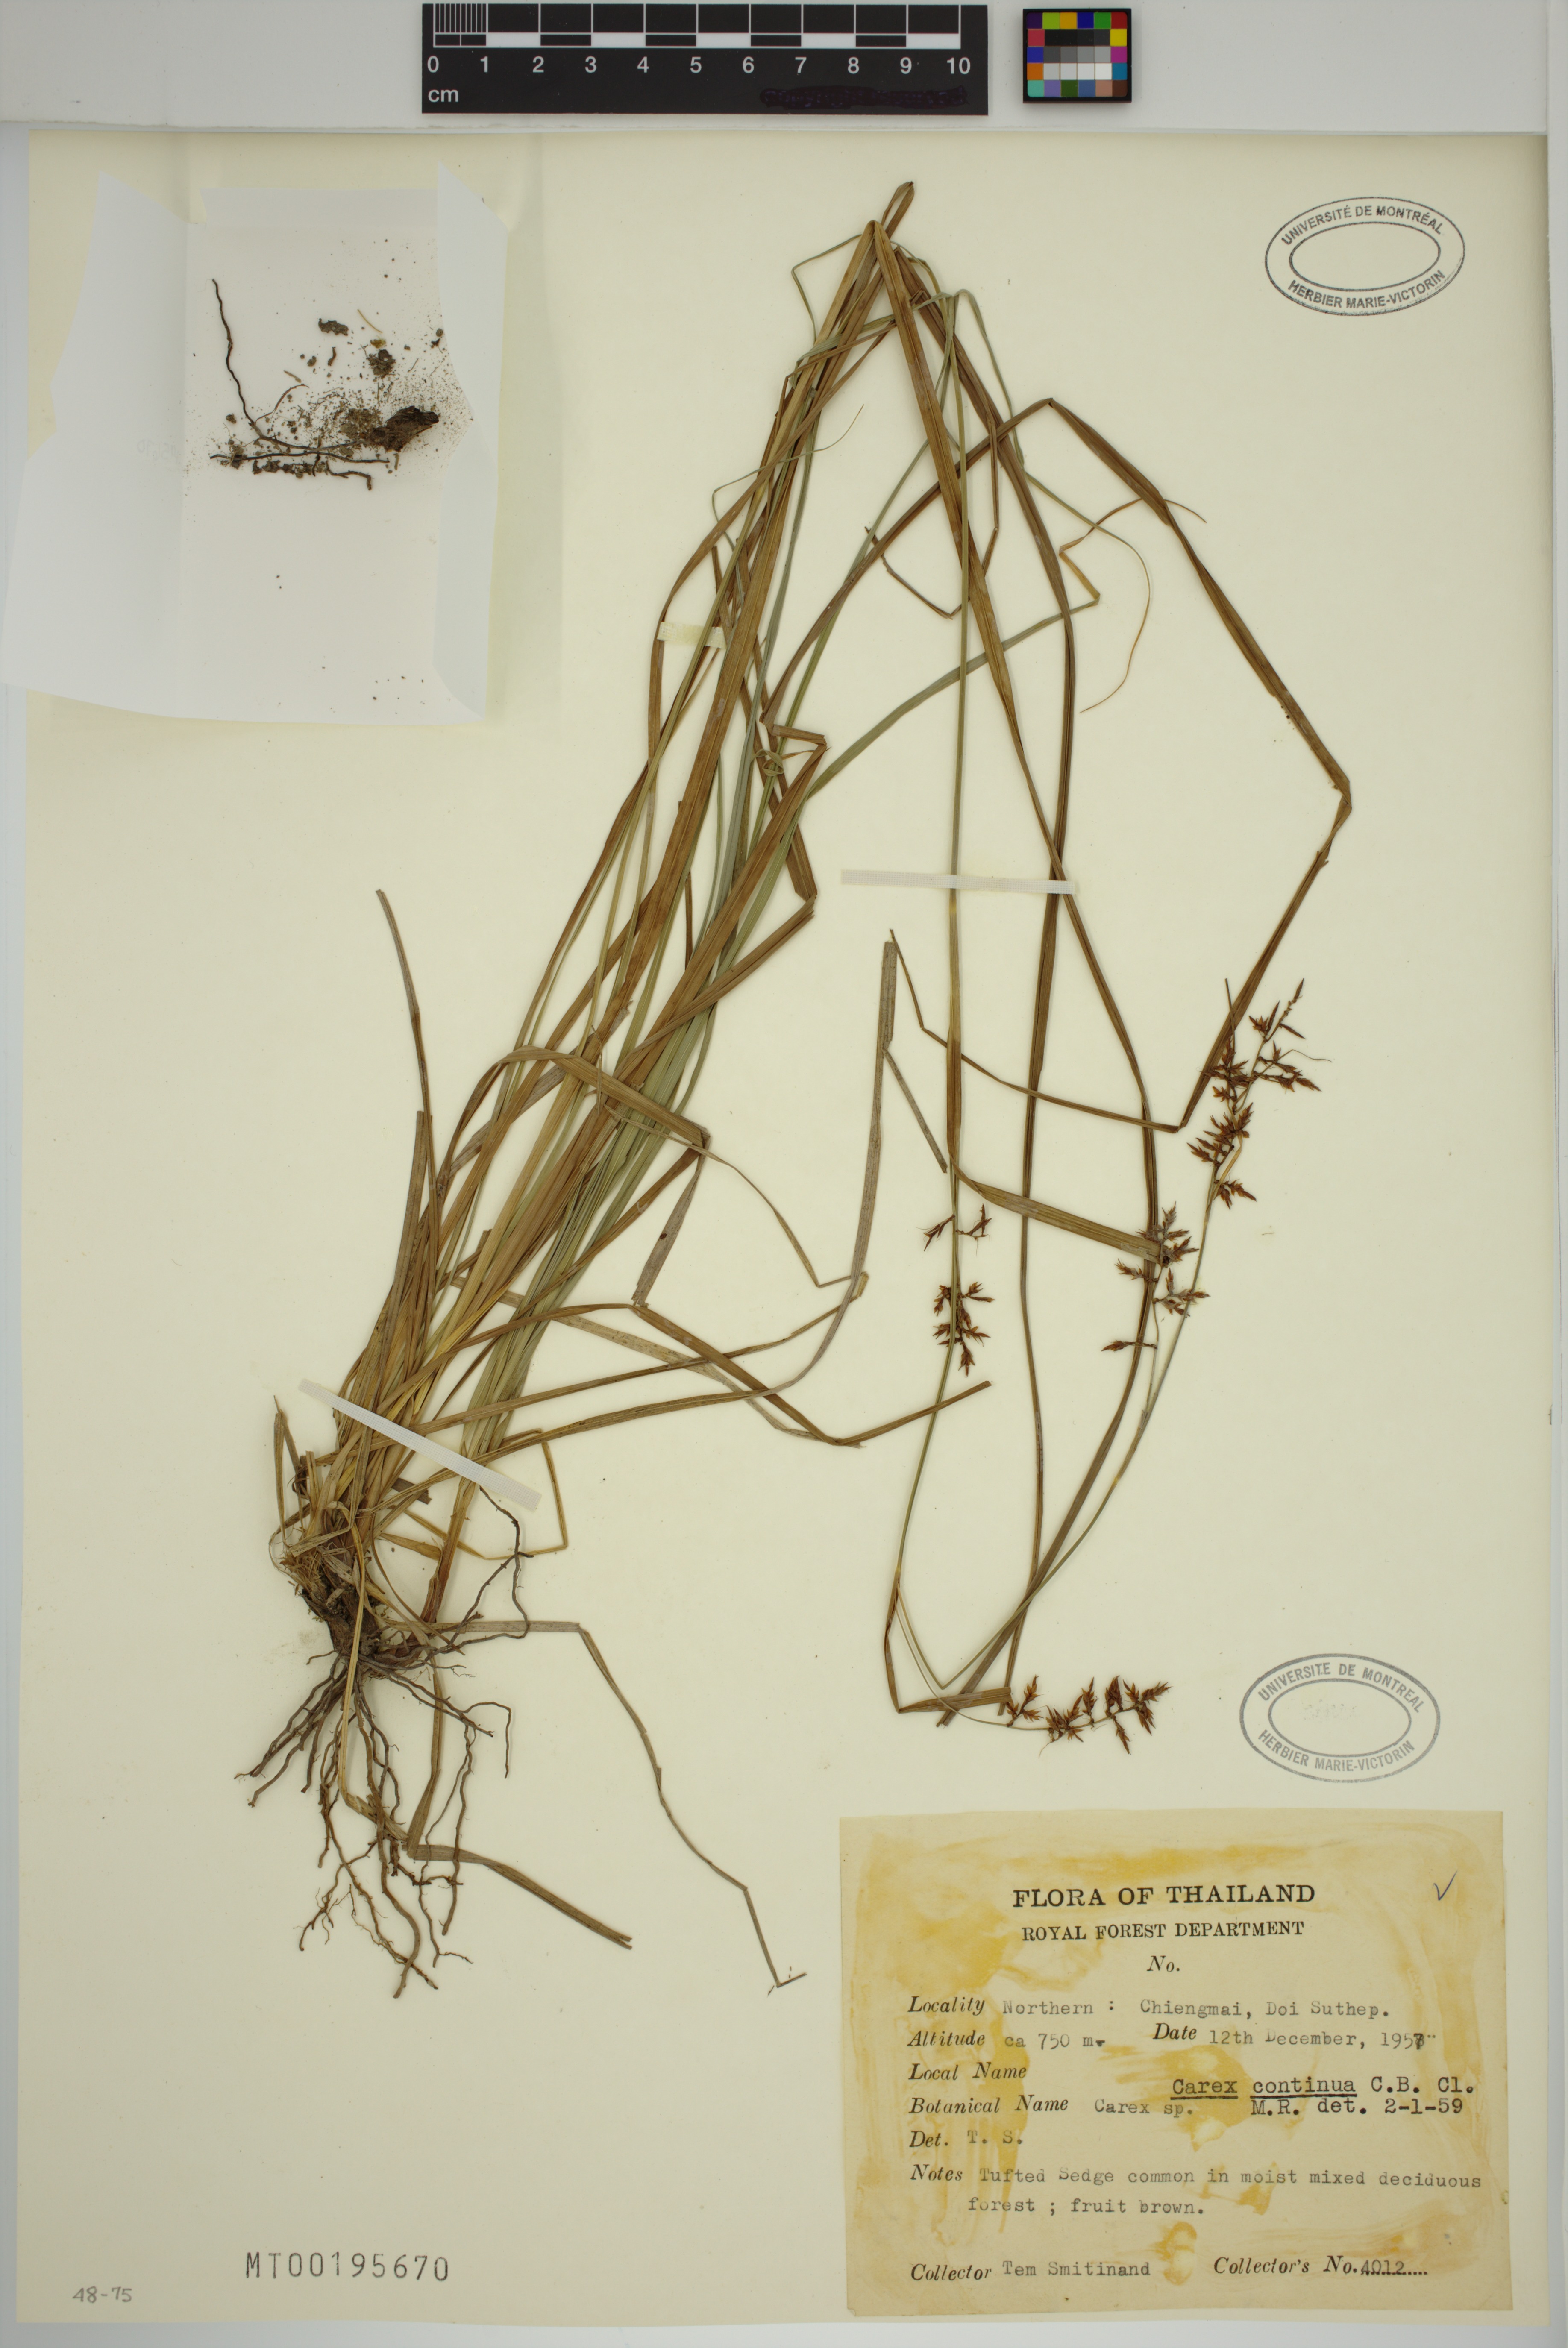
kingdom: Plantae
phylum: Tracheophyta
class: Liliopsida
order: Poales
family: Cyperaceae
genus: Carex
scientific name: Carex continua
